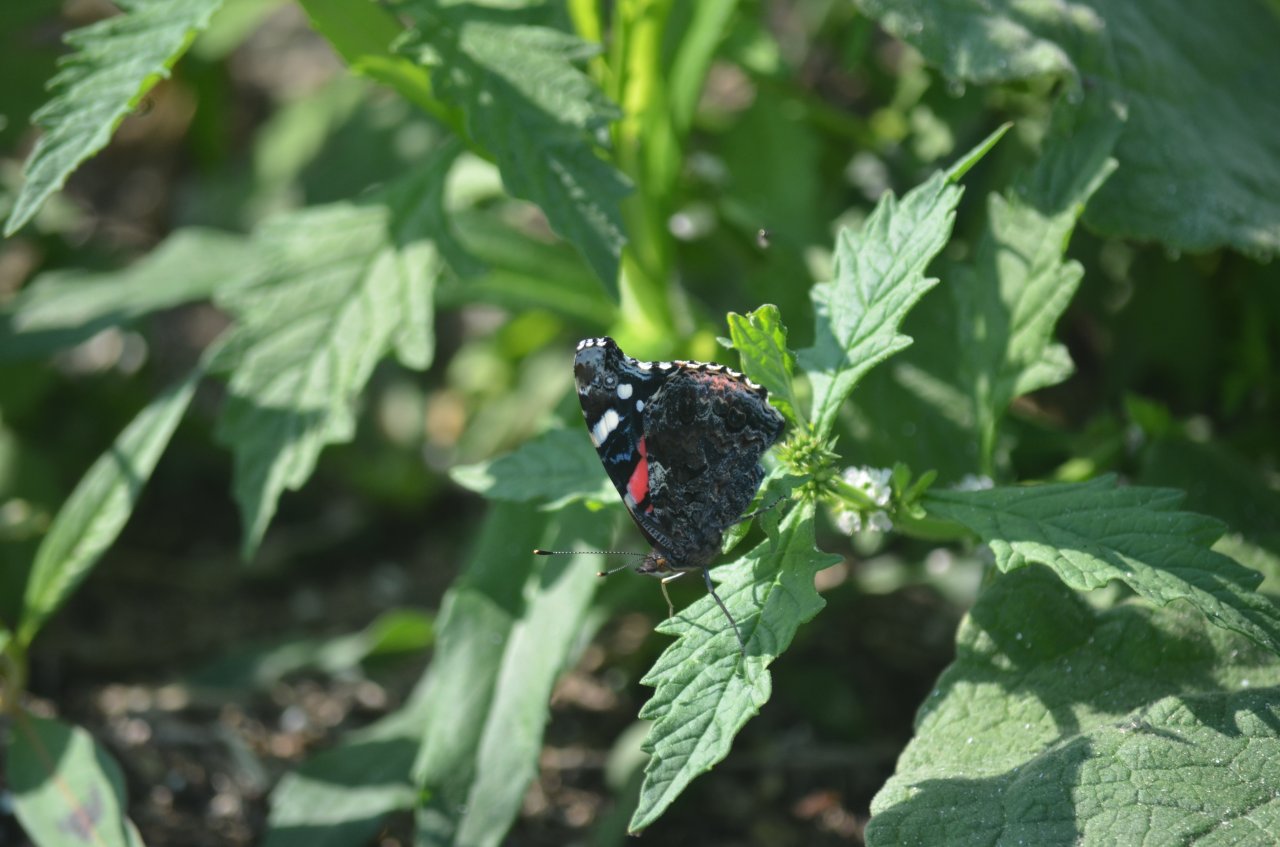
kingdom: Animalia
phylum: Arthropoda
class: Insecta
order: Lepidoptera
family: Nymphalidae
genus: Vanessa
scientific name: Vanessa atalanta
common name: Red Admiral
